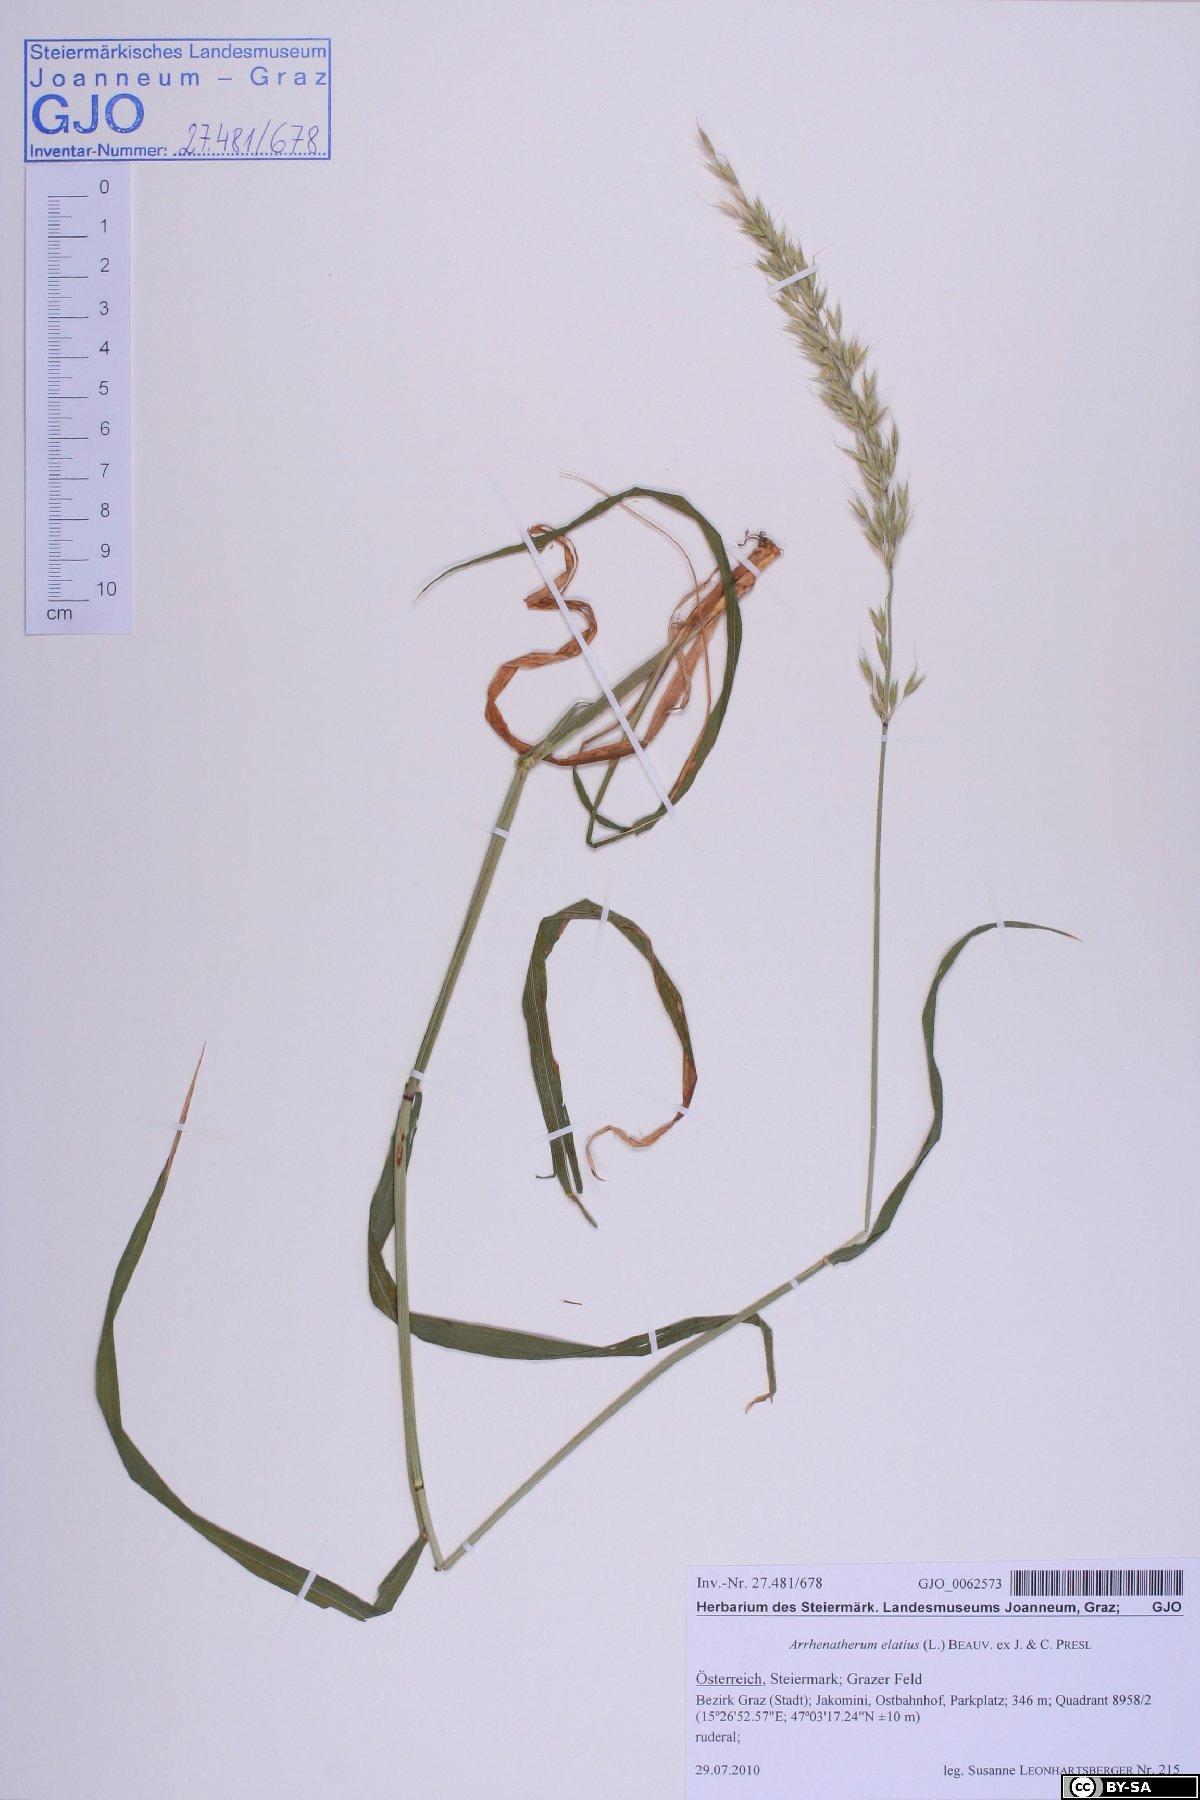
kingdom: Plantae
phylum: Tracheophyta
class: Liliopsida
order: Poales
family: Poaceae
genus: Arrhenatherum
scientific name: Arrhenatherum elatius
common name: Tall oatgrass
